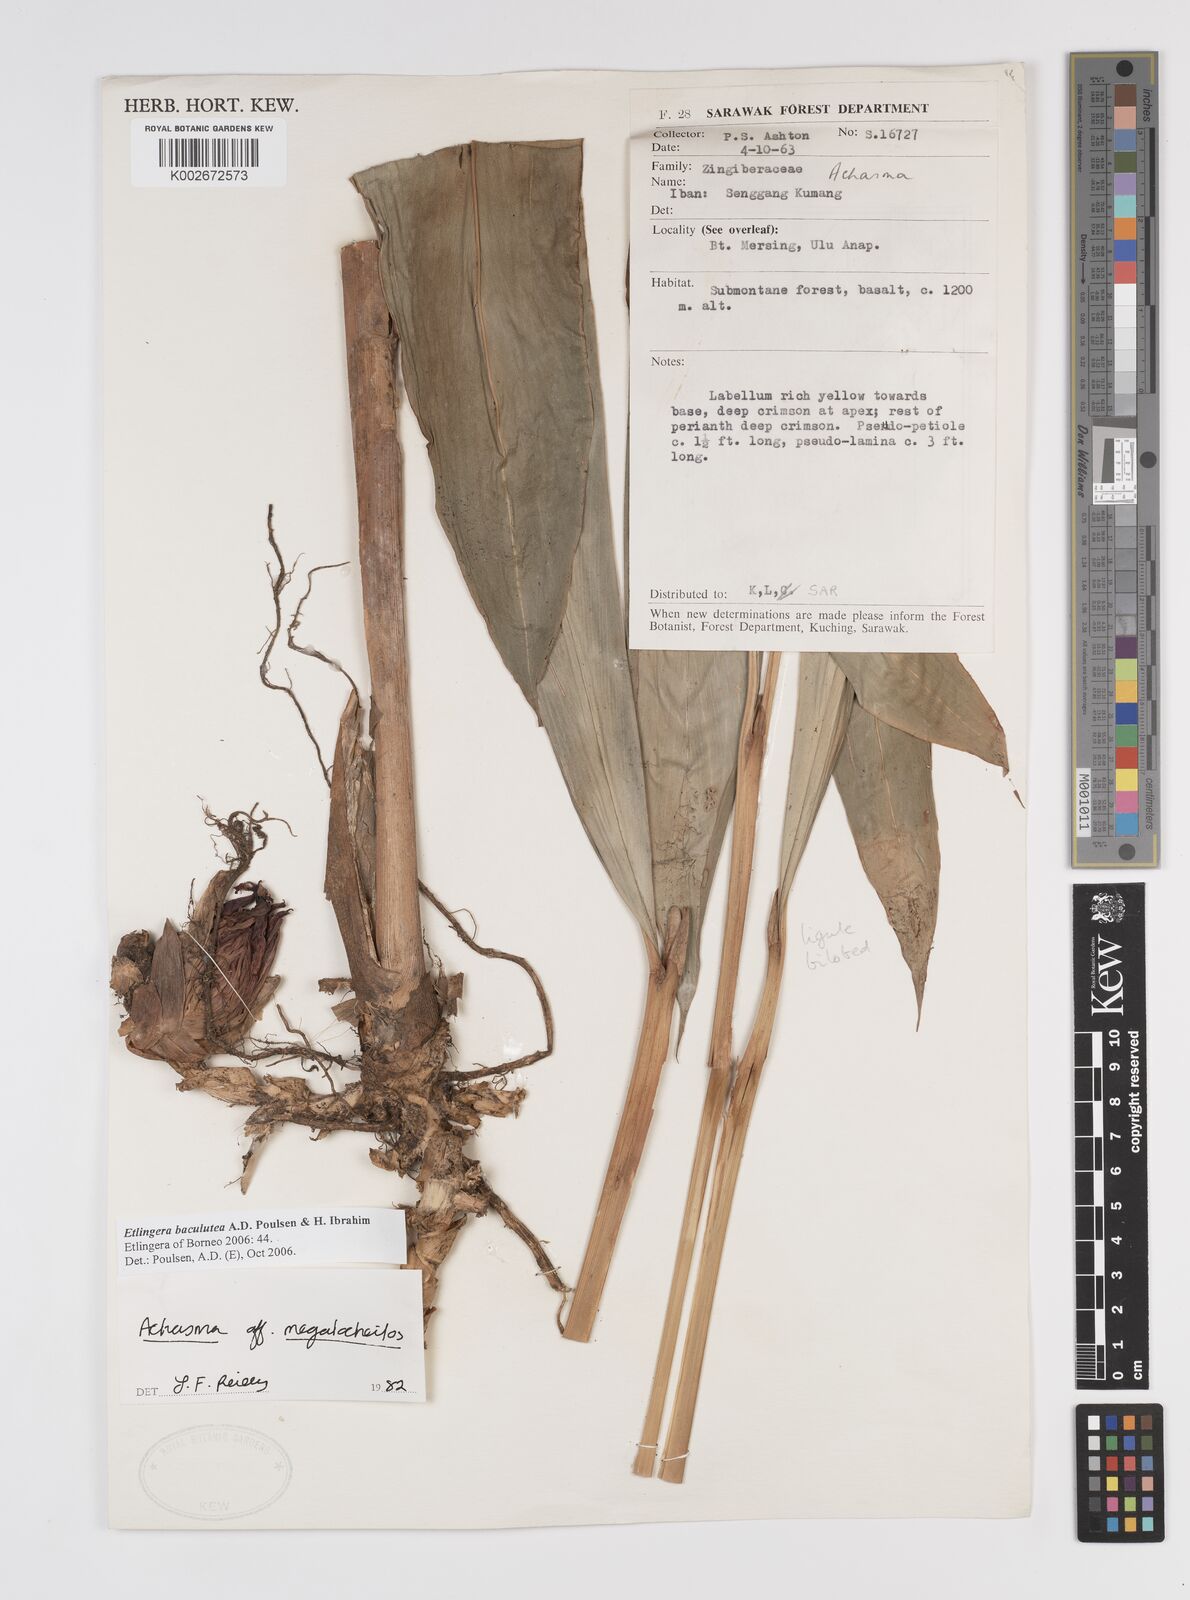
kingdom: Plantae
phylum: Tracheophyta
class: Liliopsida
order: Zingiberales
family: Zingiberaceae
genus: Etlingera
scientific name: Etlingera baculutea
